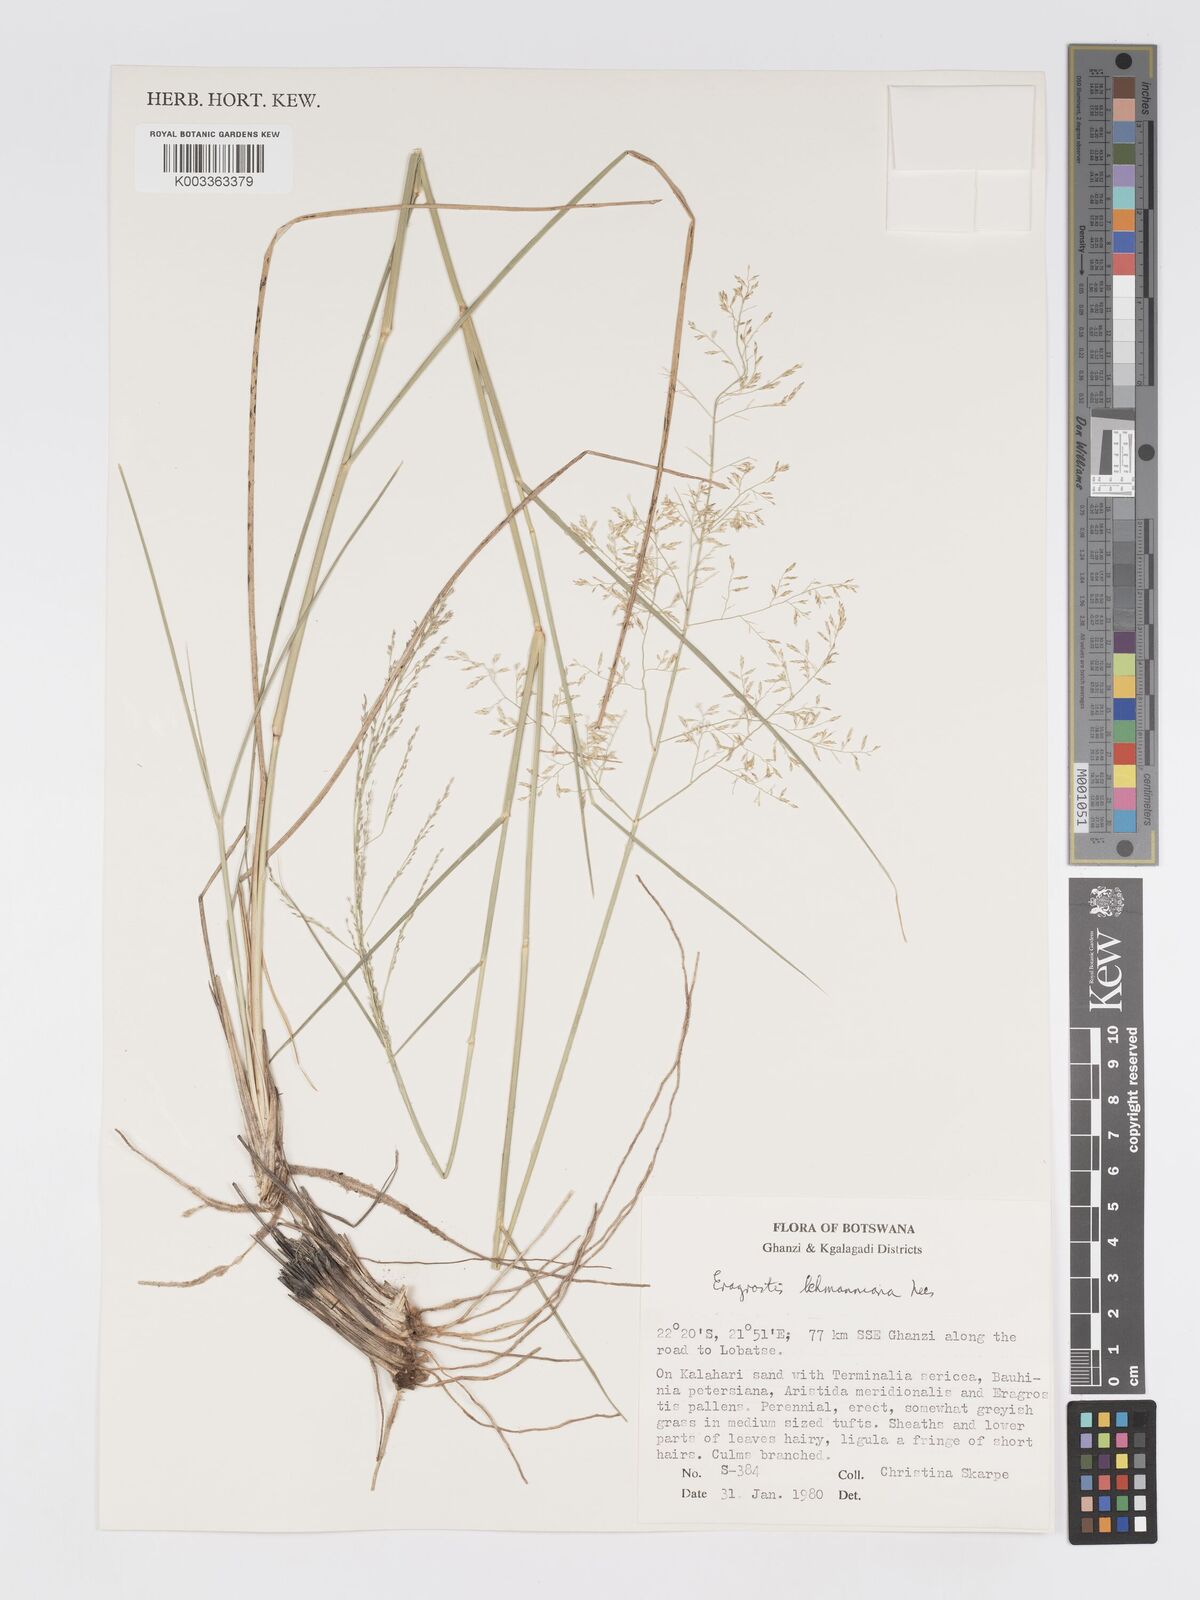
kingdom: Plantae
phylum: Tracheophyta
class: Liliopsida
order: Poales
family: Poaceae
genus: Eragrostis
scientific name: Eragrostis lehmanniana
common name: Lehmann lovegrass
